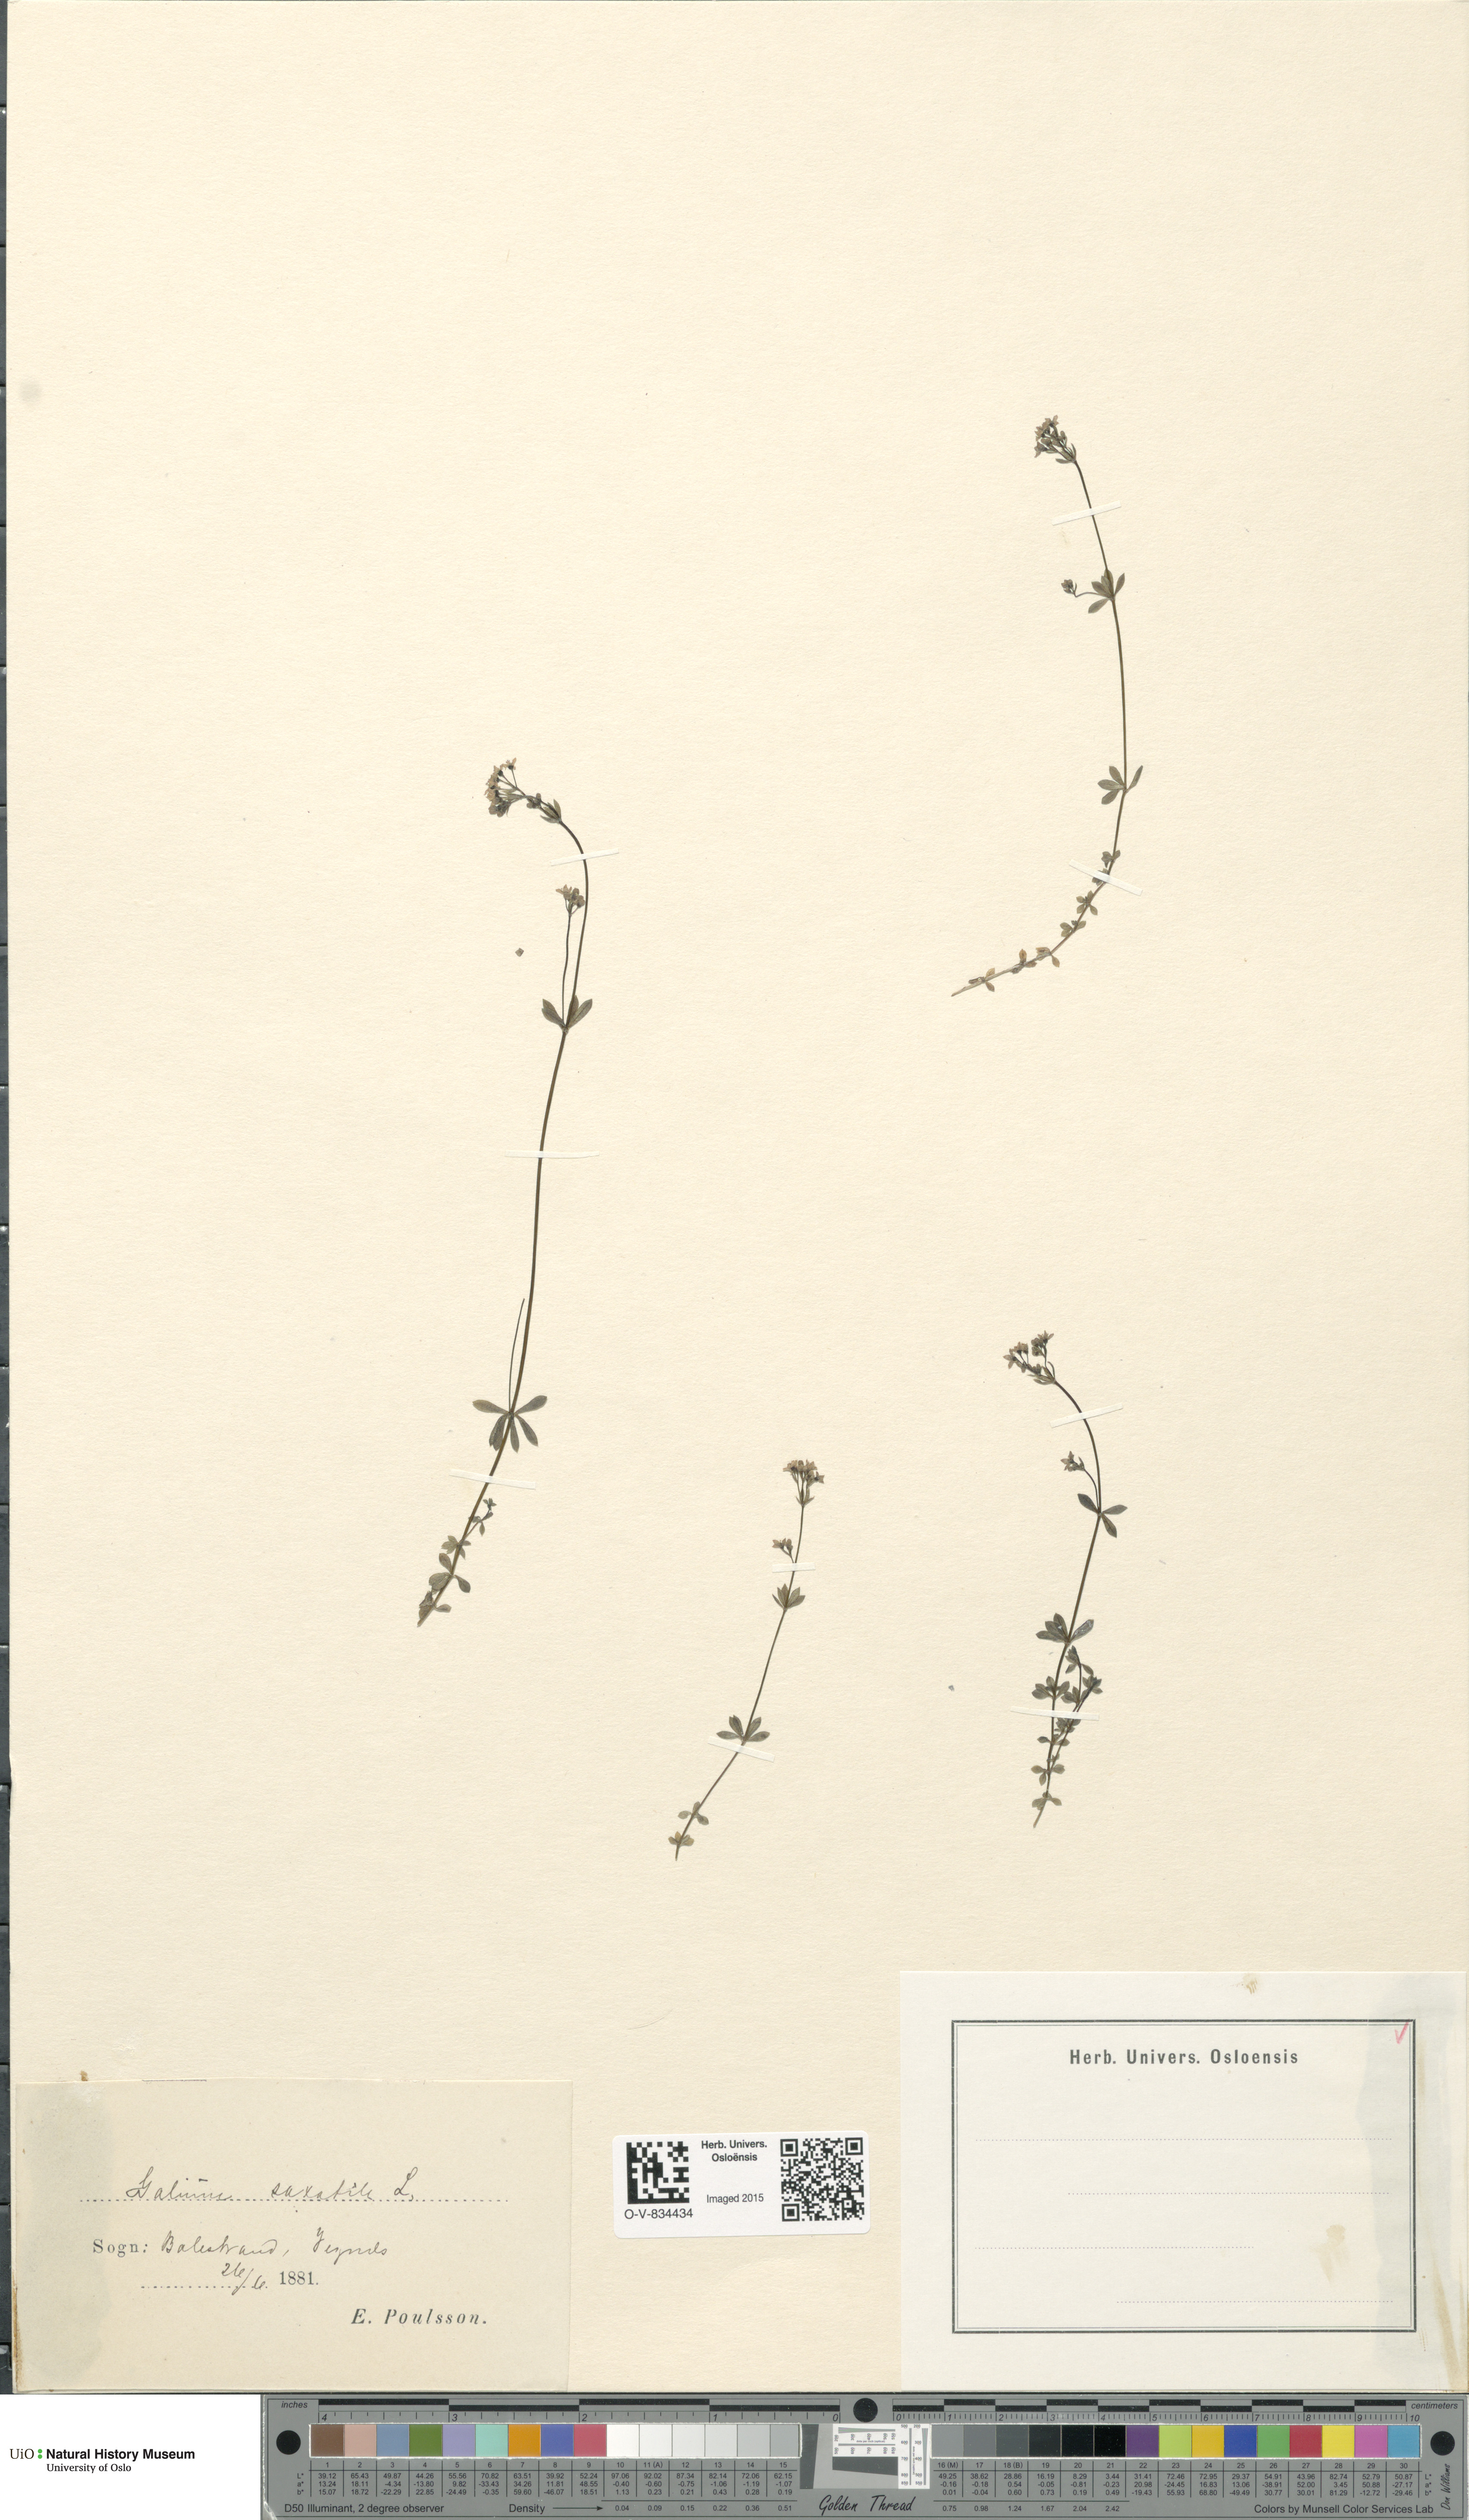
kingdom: Plantae
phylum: Tracheophyta
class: Magnoliopsida
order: Gentianales
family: Rubiaceae
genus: Galium
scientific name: Galium saxatile
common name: Heath bedstraw
